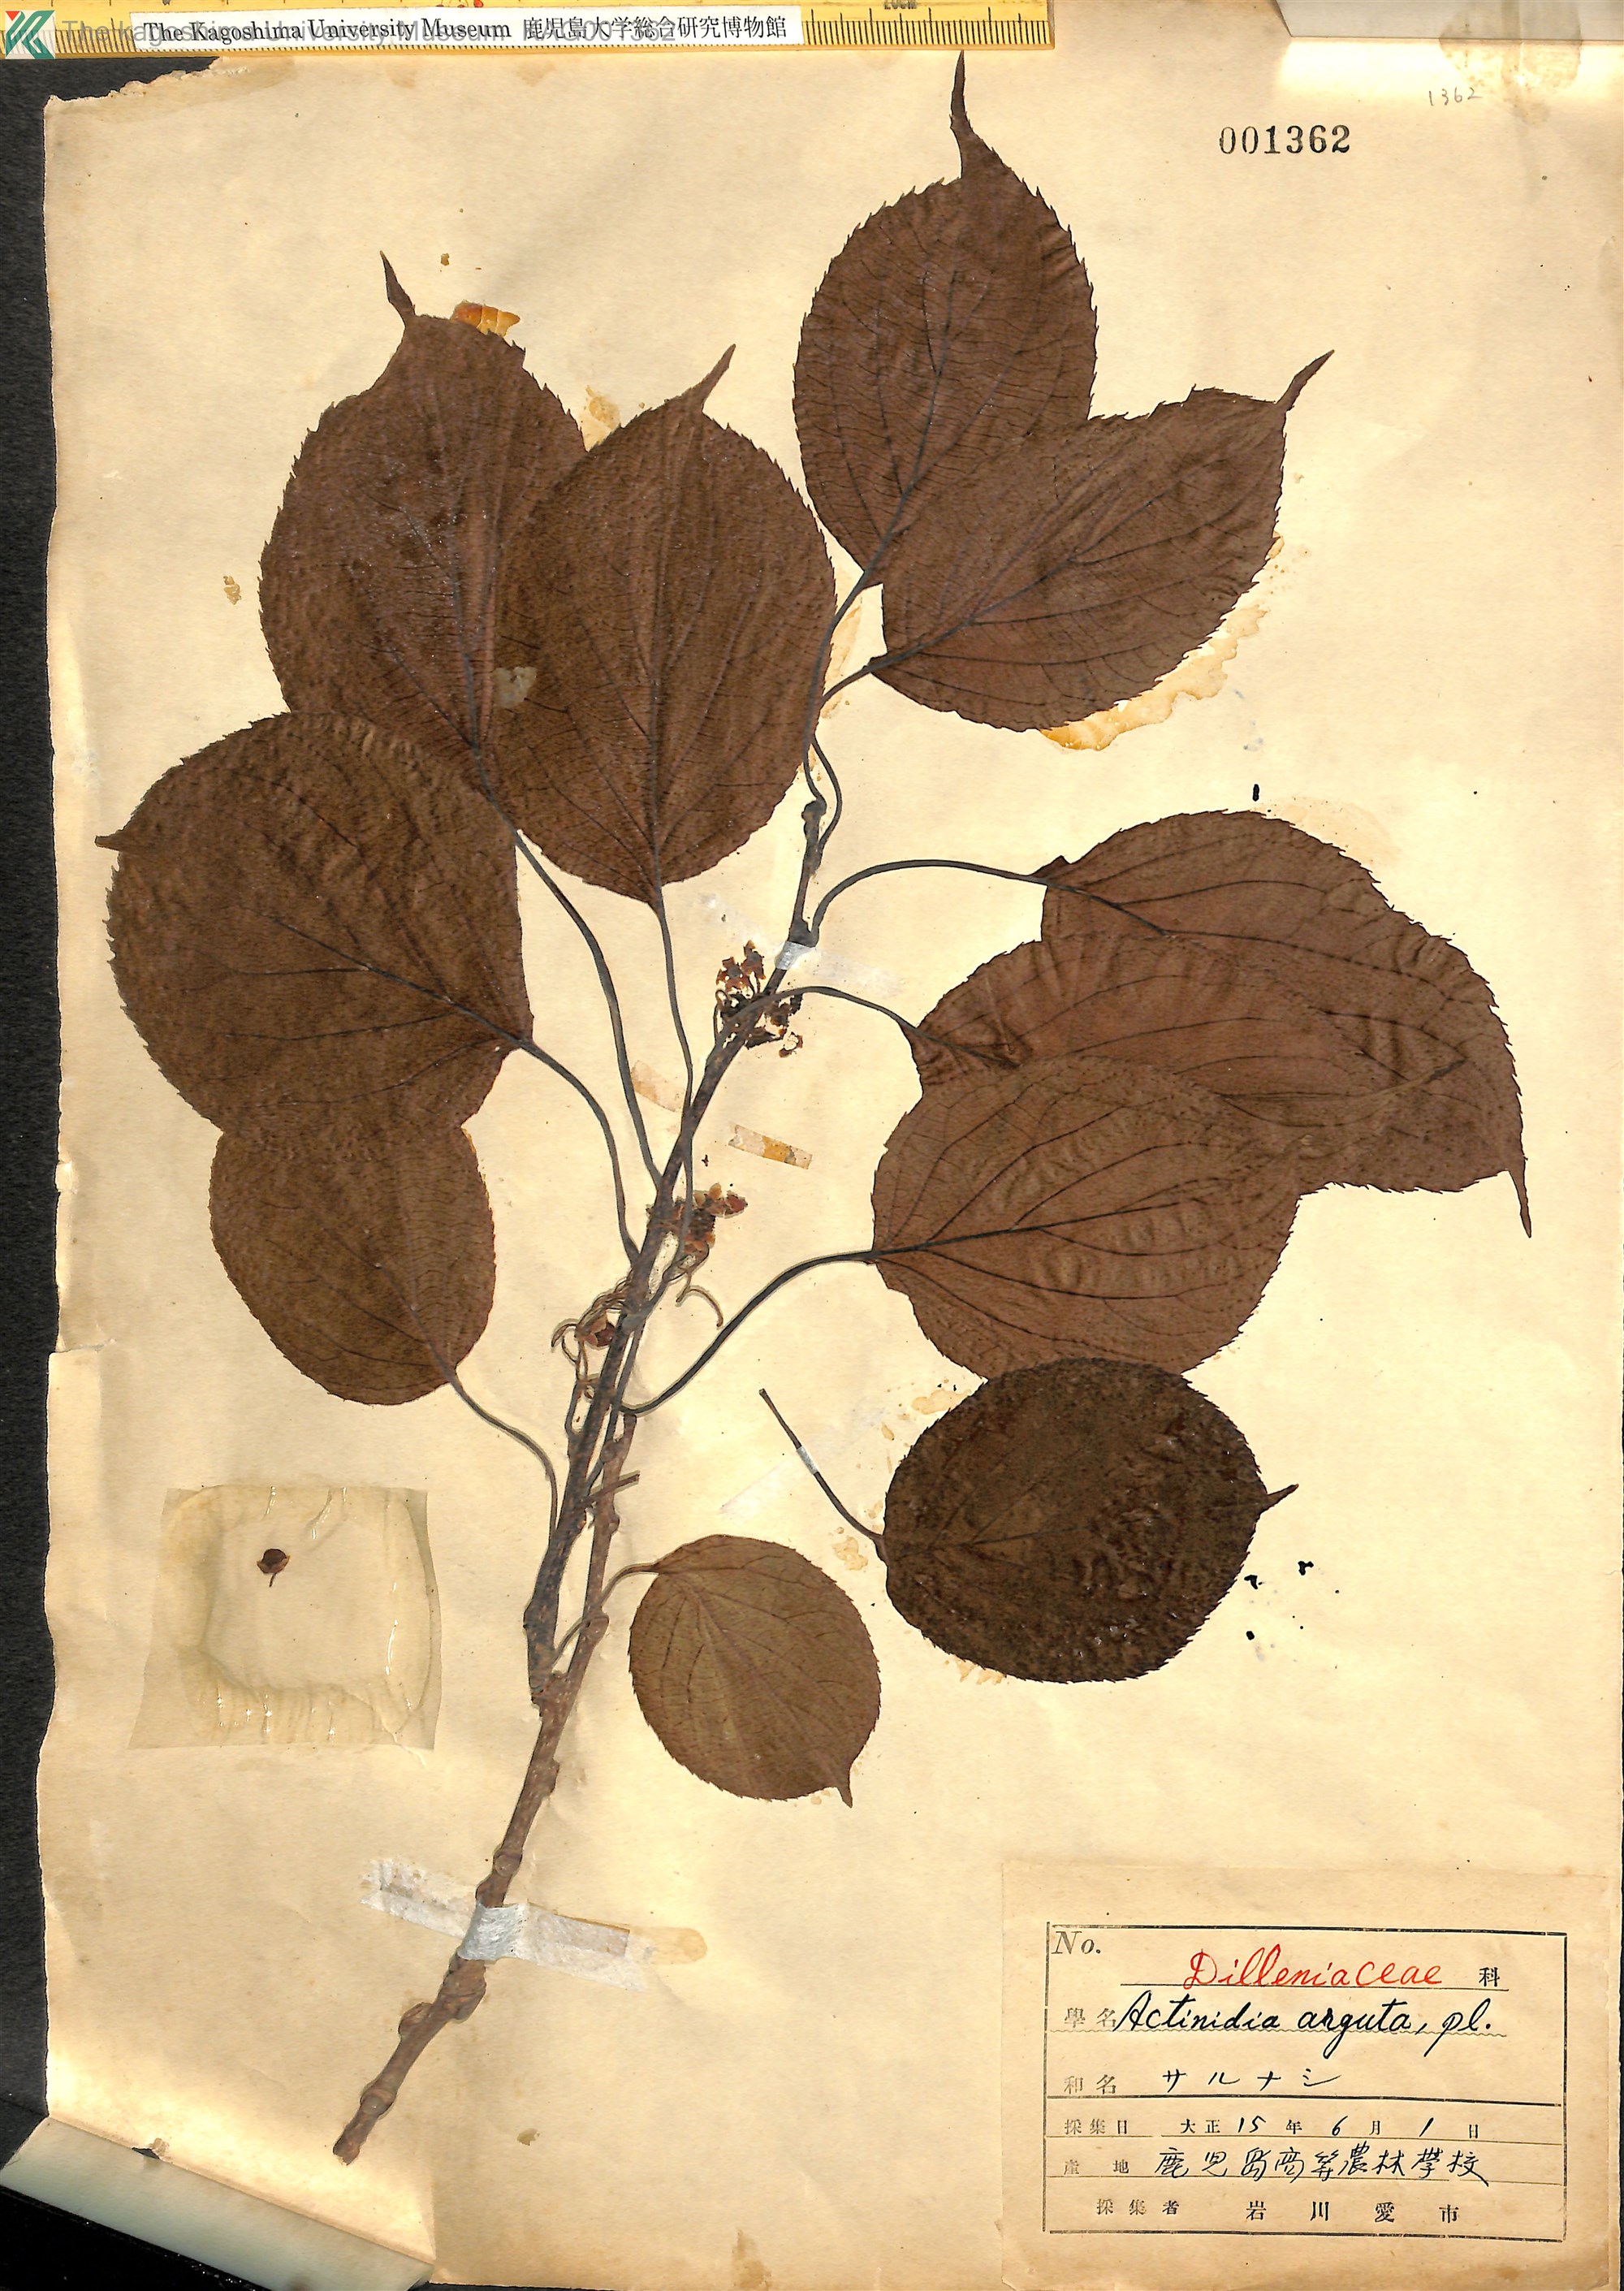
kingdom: Plantae
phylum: Tracheophyta
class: Magnoliopsida
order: Ericales
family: Actinidiaceae
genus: Actinidia
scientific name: Actinidia arguta
